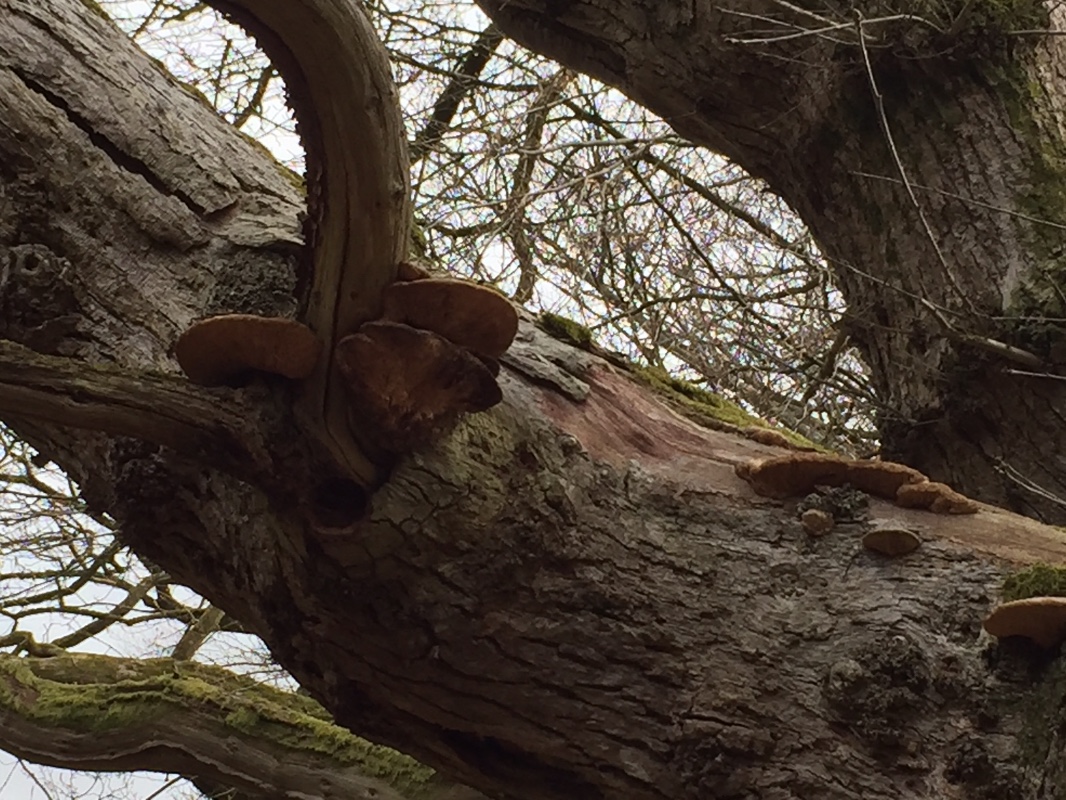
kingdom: Fungi
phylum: Basidiomycota
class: Agaricomycetes
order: Polyporales
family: Fomitopsidaceae
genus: Daedalea
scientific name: Daedalea quercina
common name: ege-labyrintsvamp
